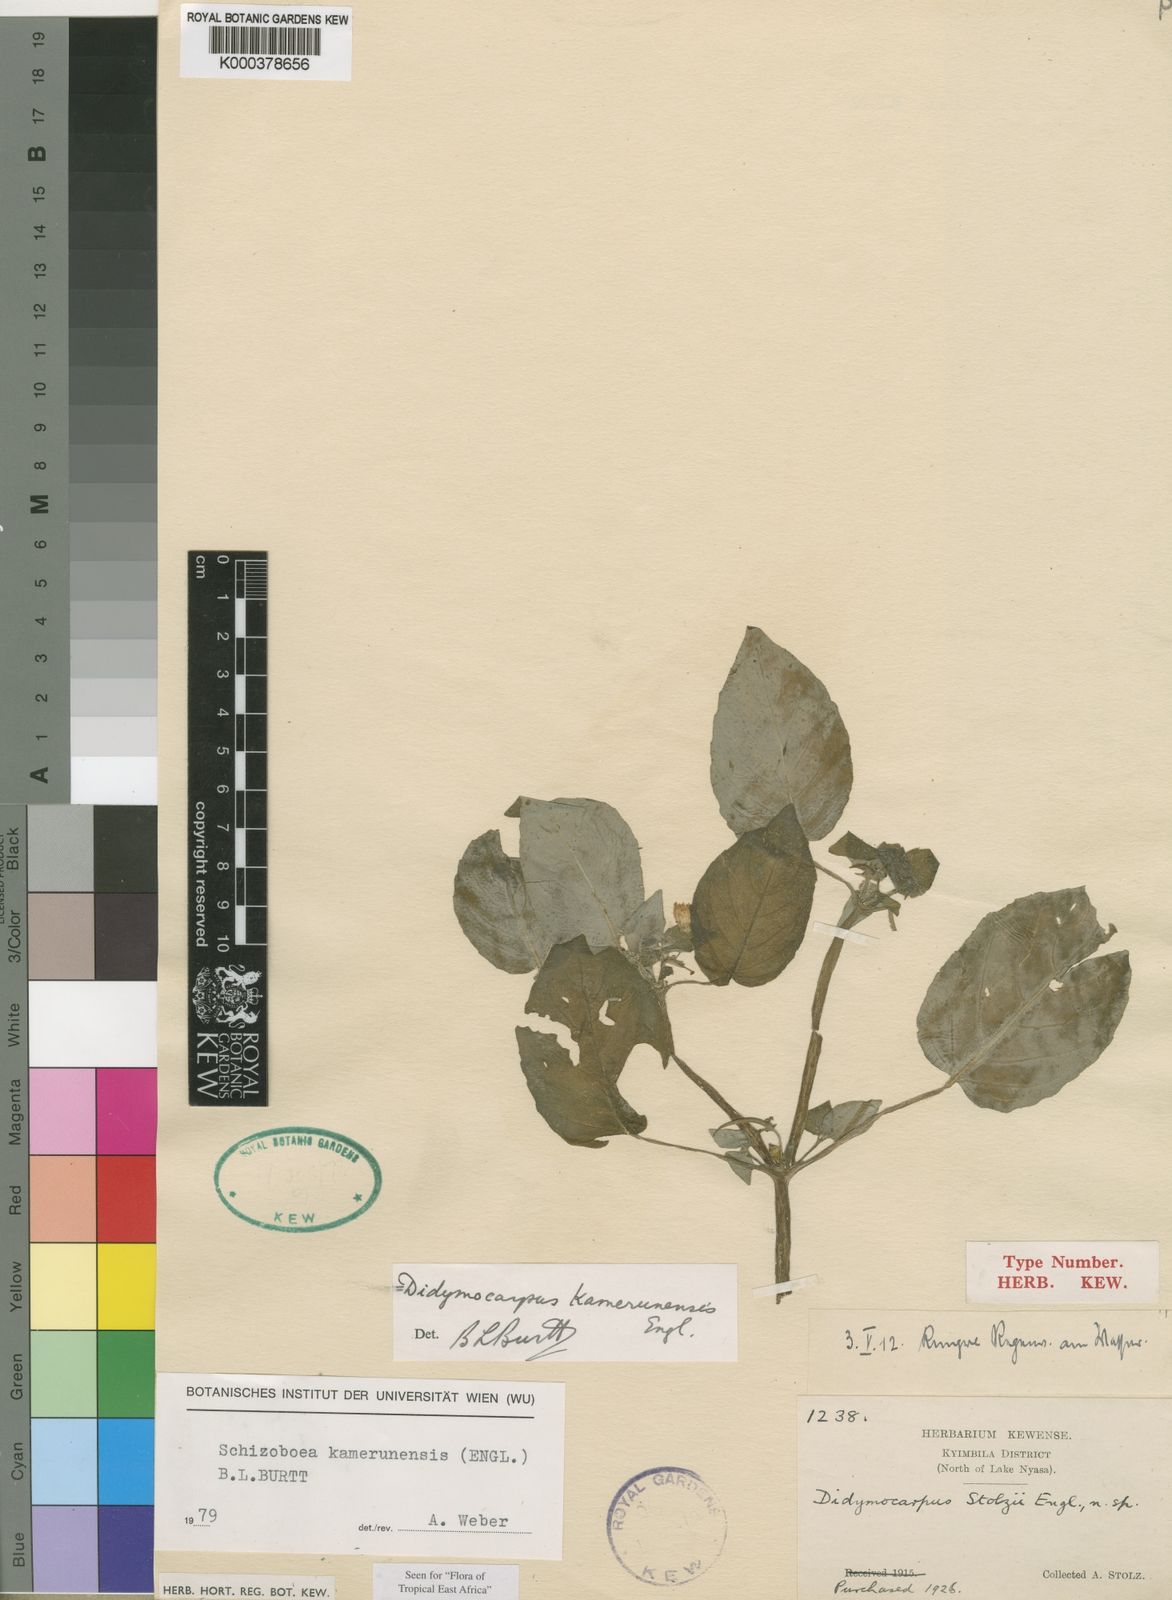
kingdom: Plantae
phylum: Tracheophyta
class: Magnoliopsida
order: Lamiales
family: Gesneriaceae
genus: Streptocarpus
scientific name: Streptocarpus kamerunensis
